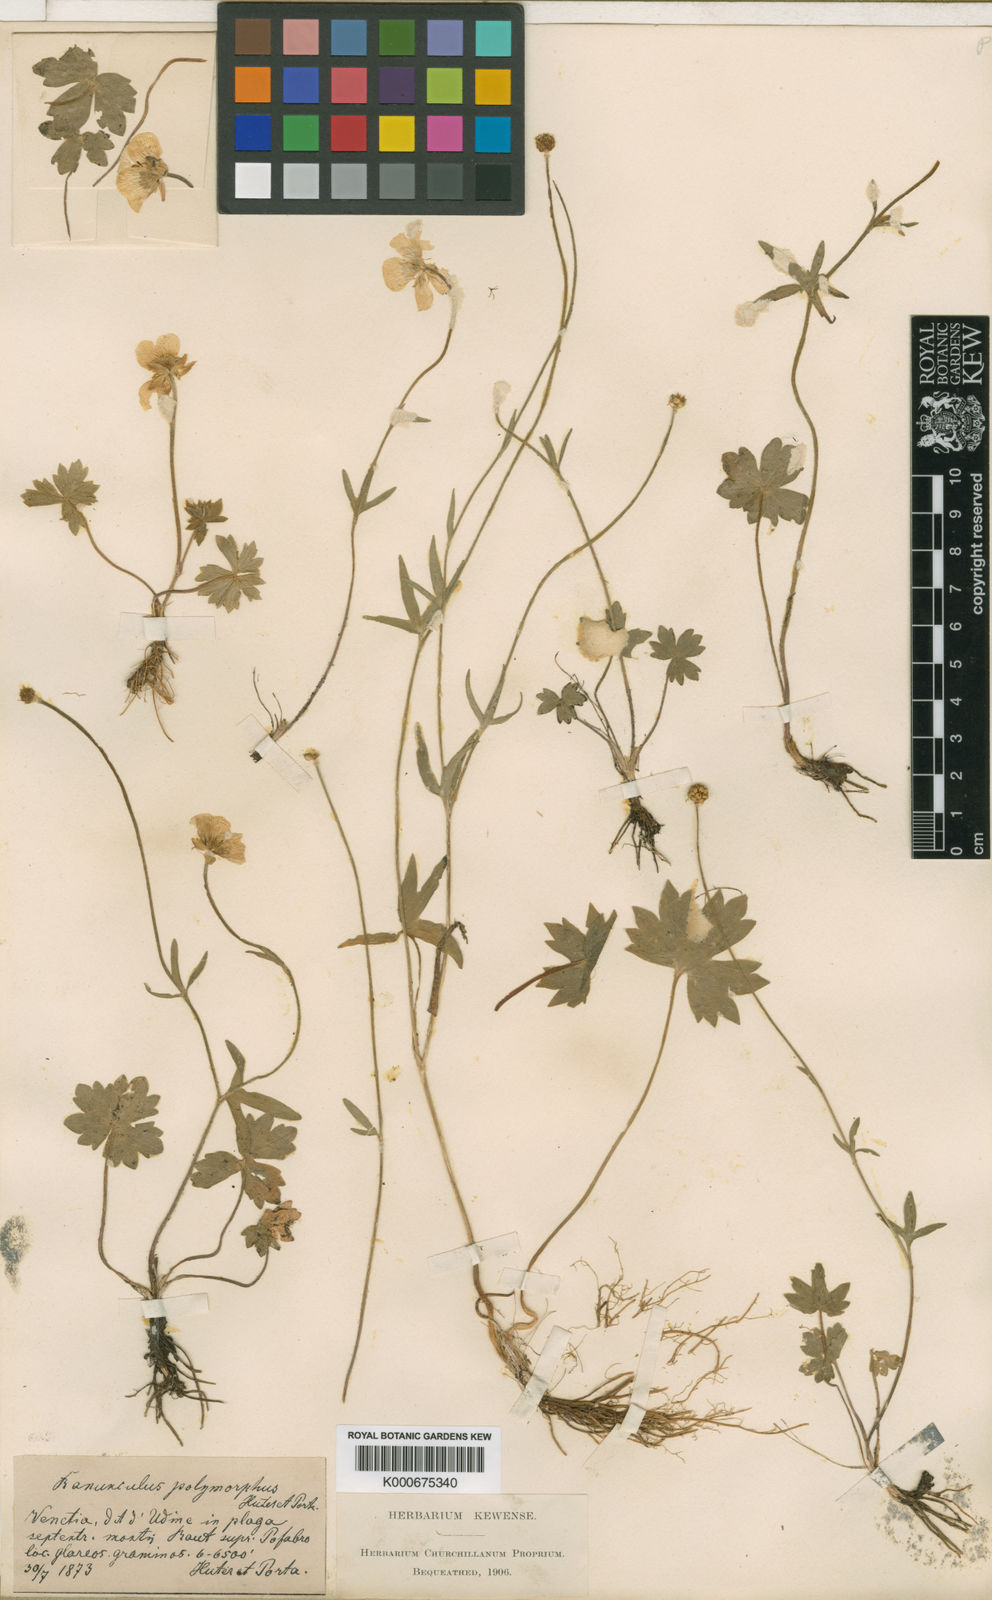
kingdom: Plantae
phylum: Tracheophyta
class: Magnoliopsida
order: Ranunculales
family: Ranunculaceae
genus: Ranunculus
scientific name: Ranunculus venetus
